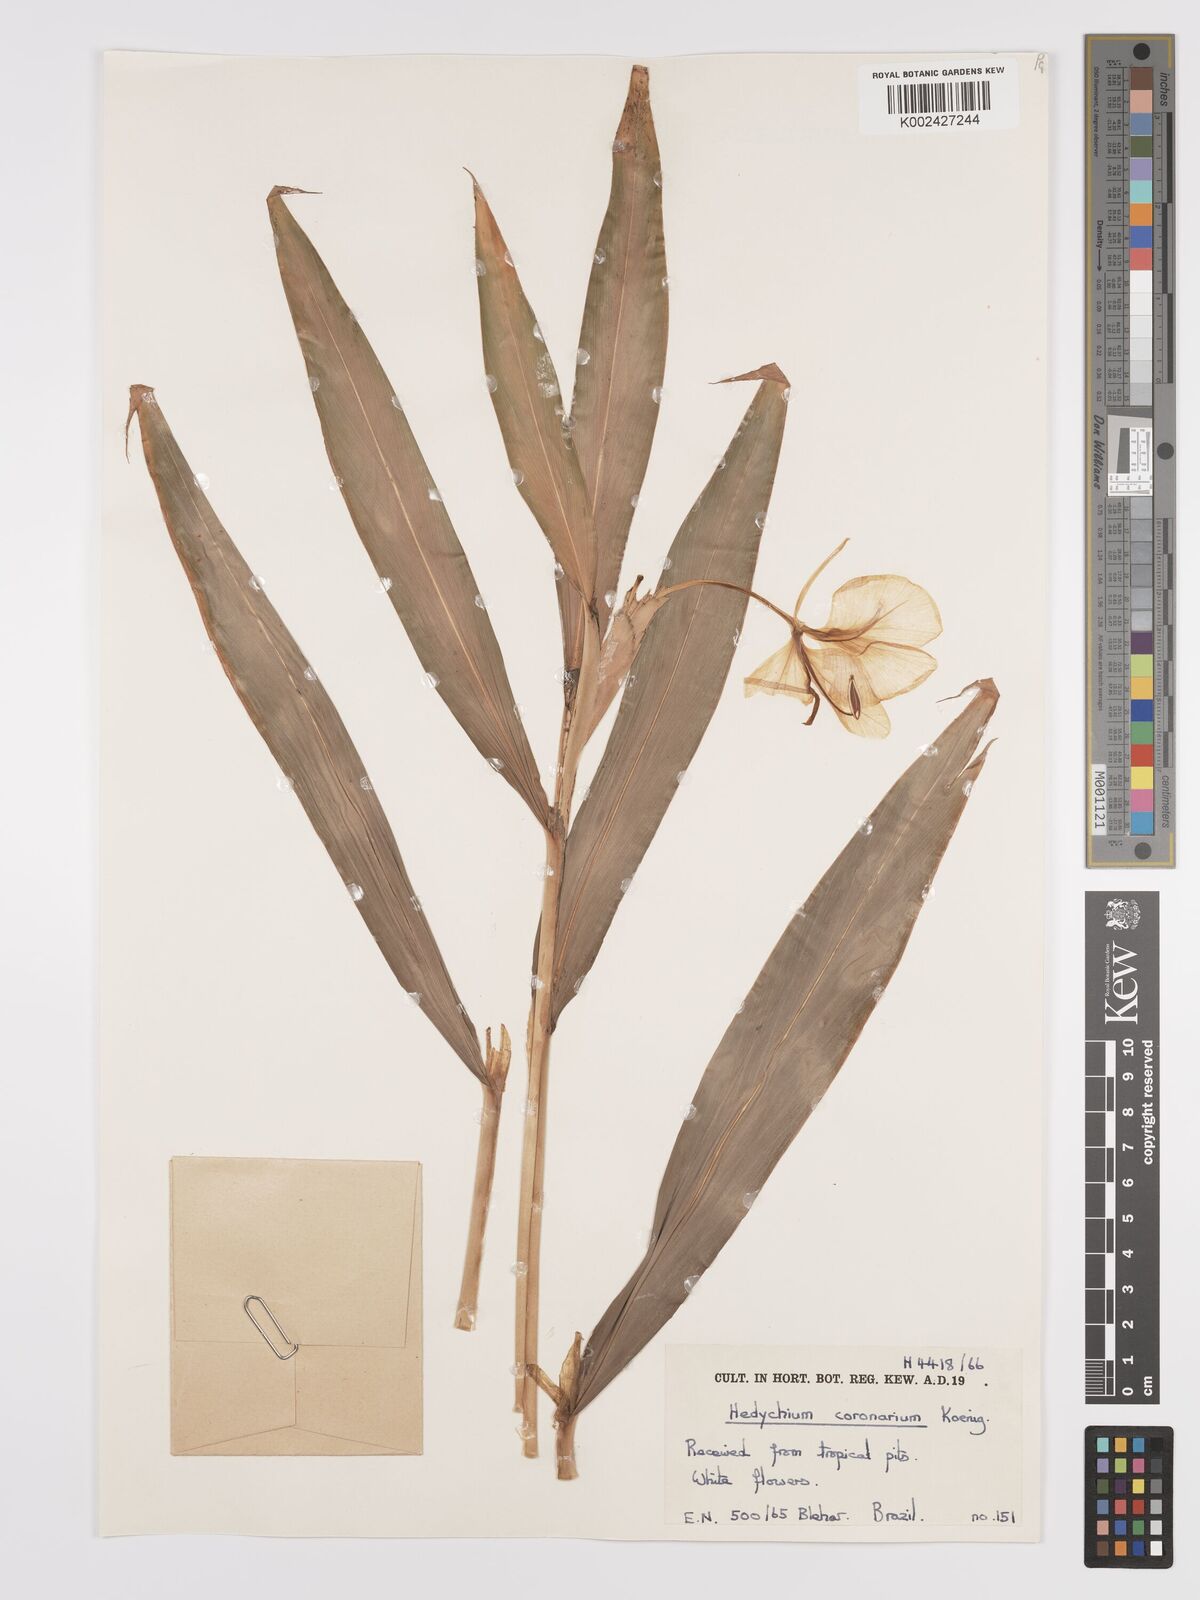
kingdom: Plantae
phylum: Tracheophyta
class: Liliopsida
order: Zingiberales
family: Zingiberaceae
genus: Hedychium
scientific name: Hedychium coronarium
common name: White garland-lily
